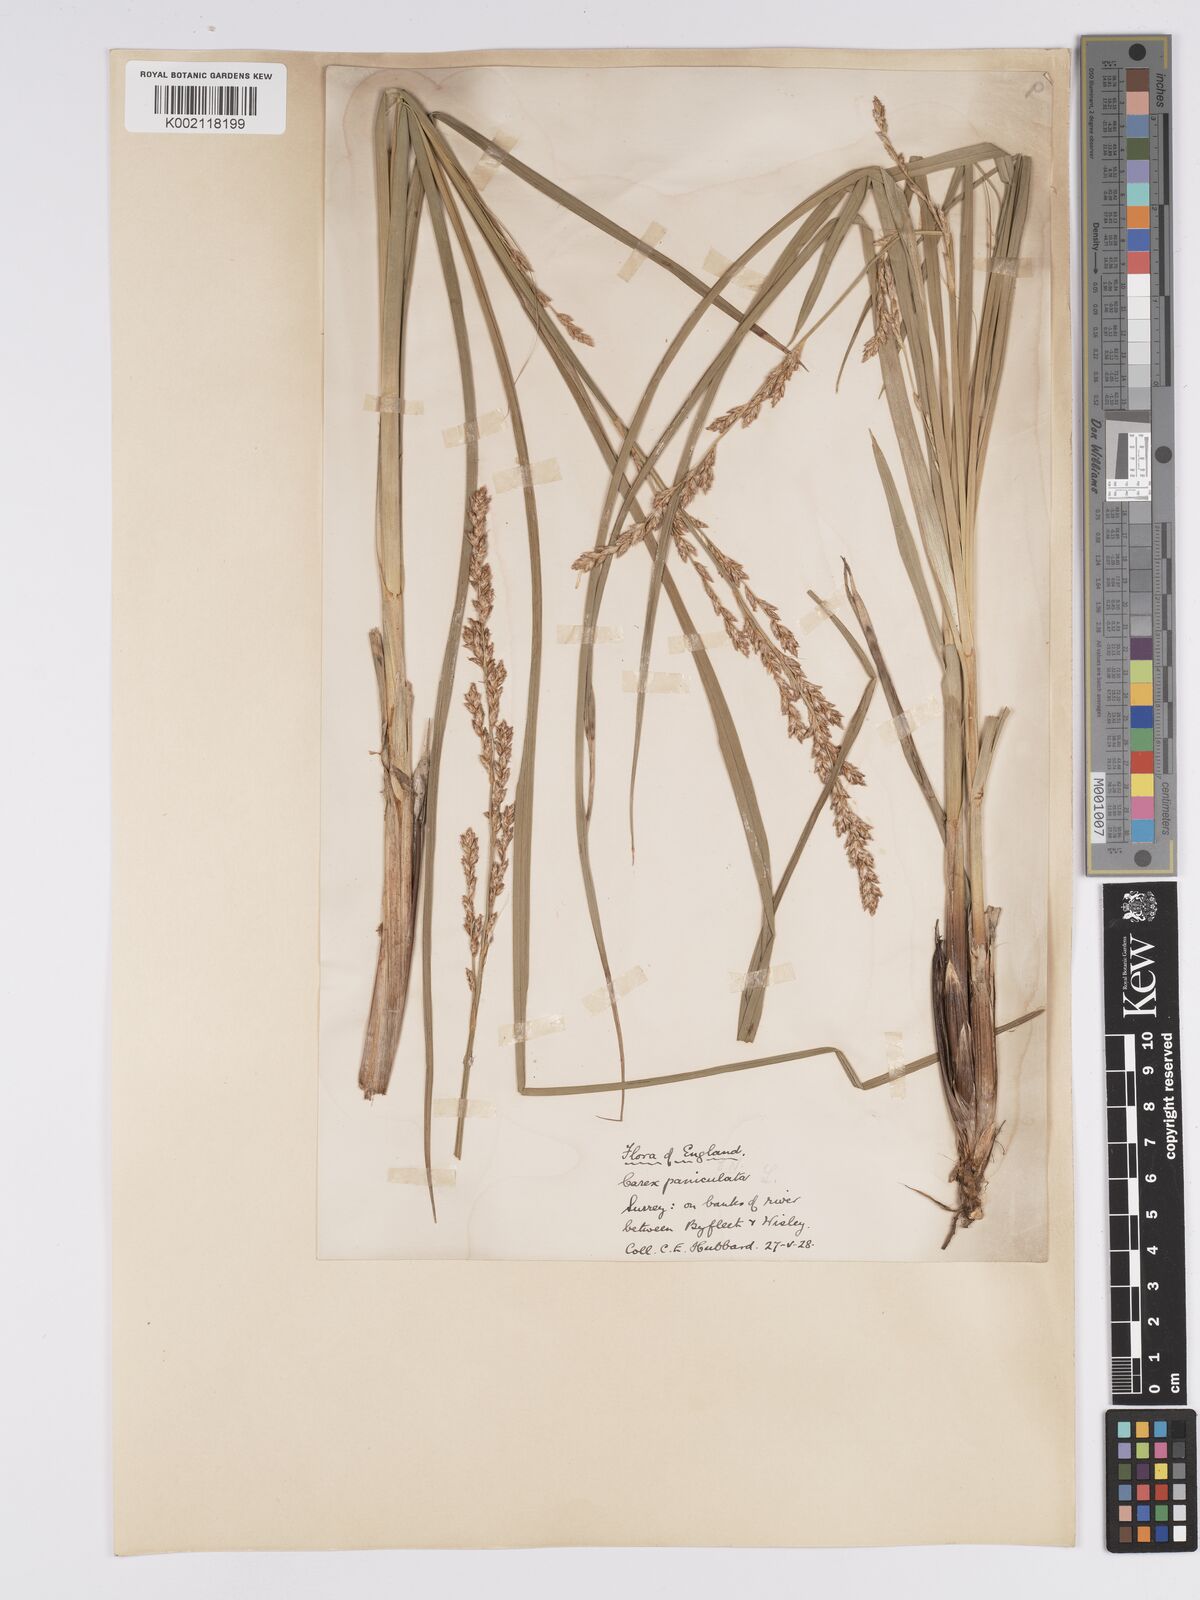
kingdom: Plantae
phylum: Tracheophyta
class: Liliopsida
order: Poales
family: Cyperaceae
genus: Carex
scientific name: Carex paniculata
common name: Greater tussock-sedge
